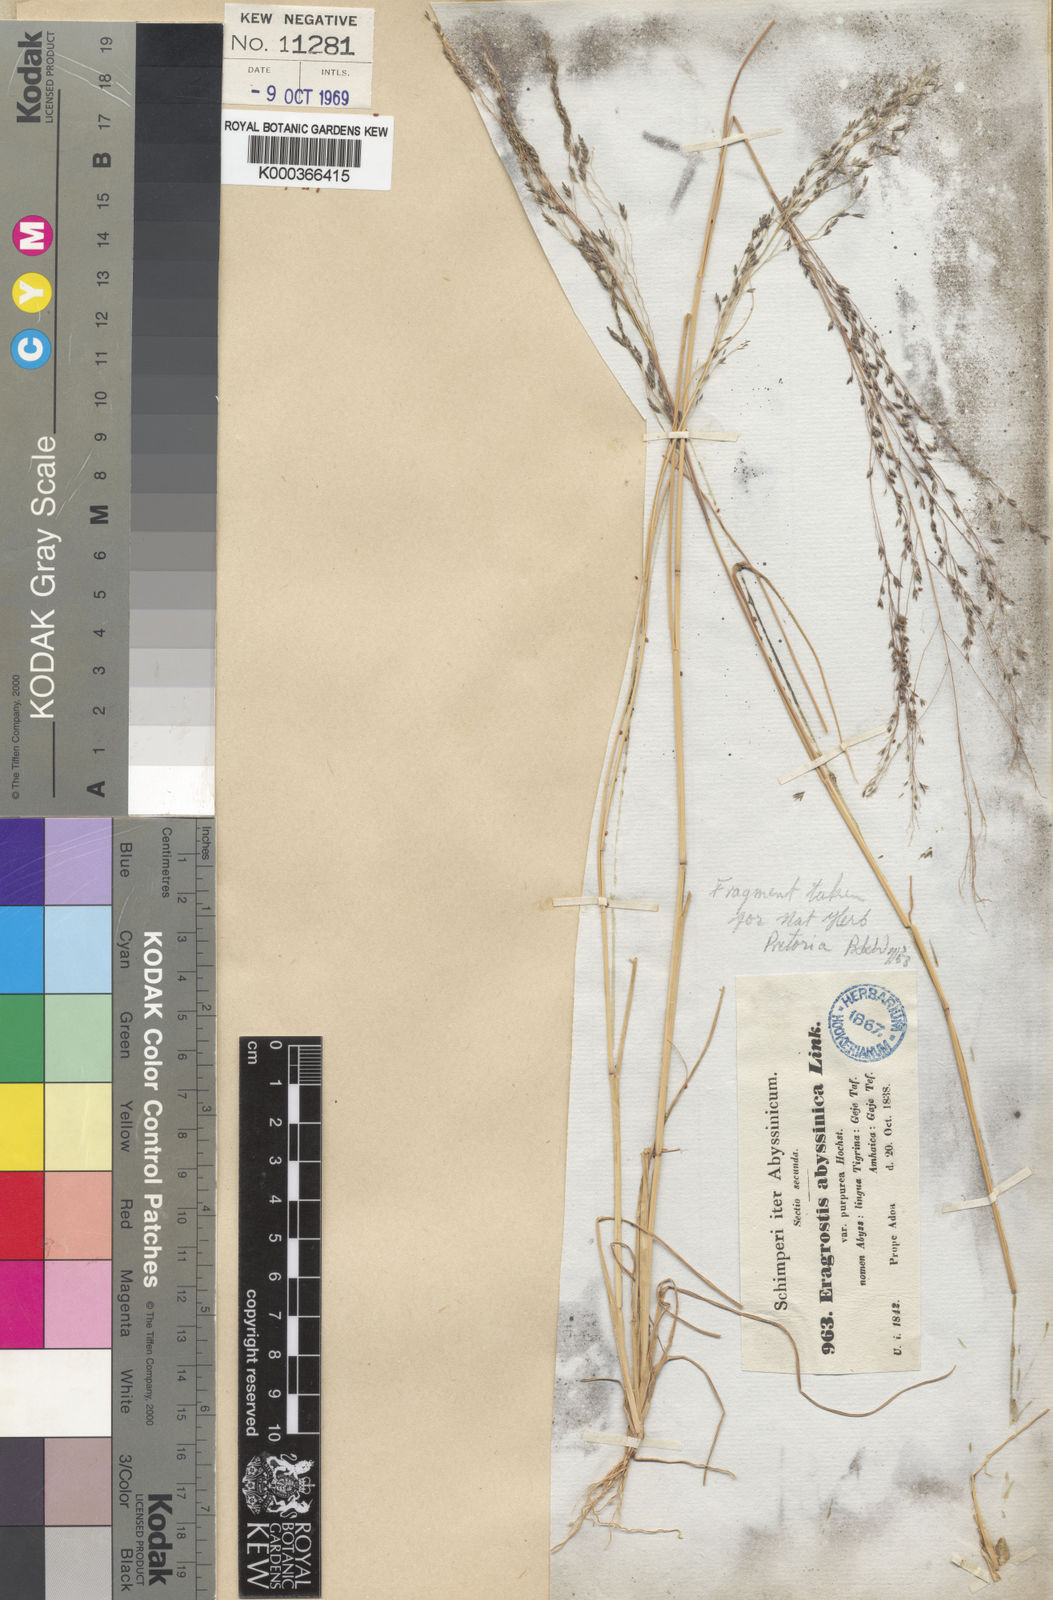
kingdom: Plantae
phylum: Tracheophyta
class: Liliopsida
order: Poales
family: Poaceae
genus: Eragrostis
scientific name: Eragrostis tef
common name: Teff
